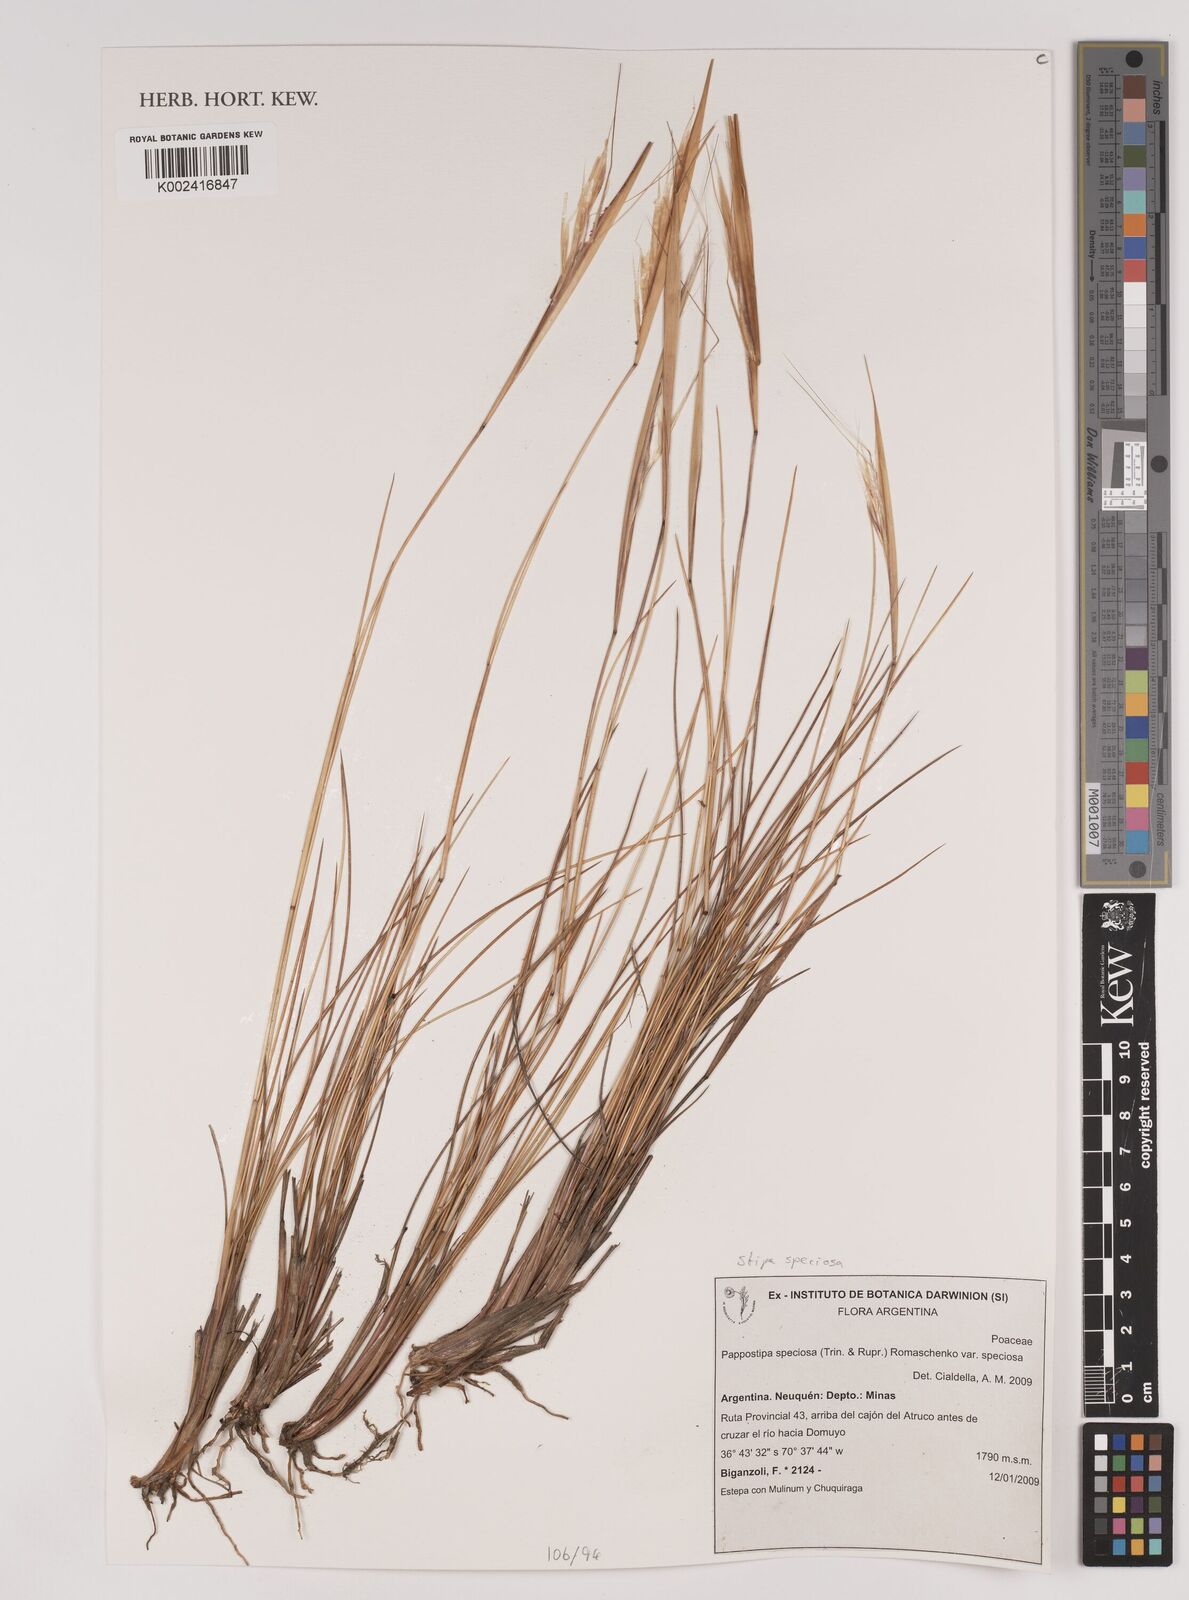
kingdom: Plantae
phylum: Tracheophyta
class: Liliopsida
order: Poales
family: Poaceae
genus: Pappostipa
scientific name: Pappostipa speciosa
